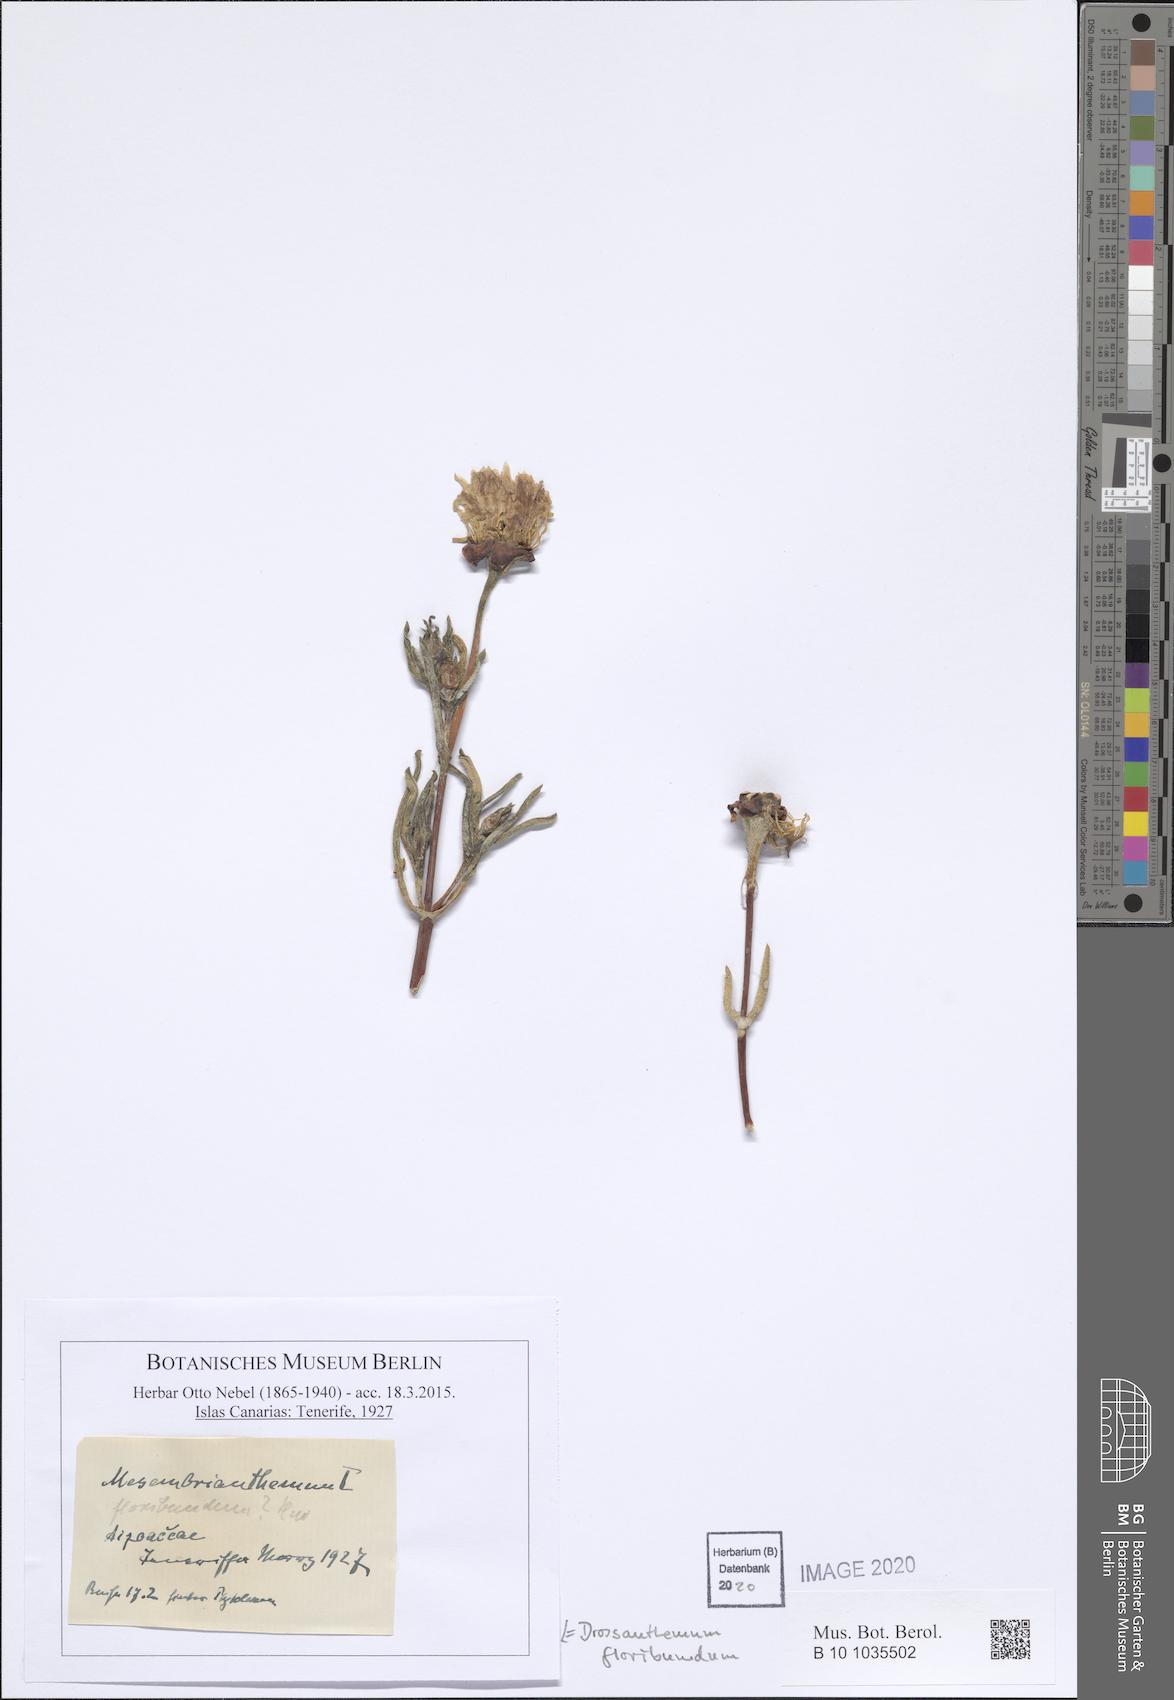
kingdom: Plantae
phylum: Tracheophyta
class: Magnoliopsida
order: Caryophyllales
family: Aizoaceae
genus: Drosanthemum
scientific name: Drosanthemum floribundum
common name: Pale dewplant
